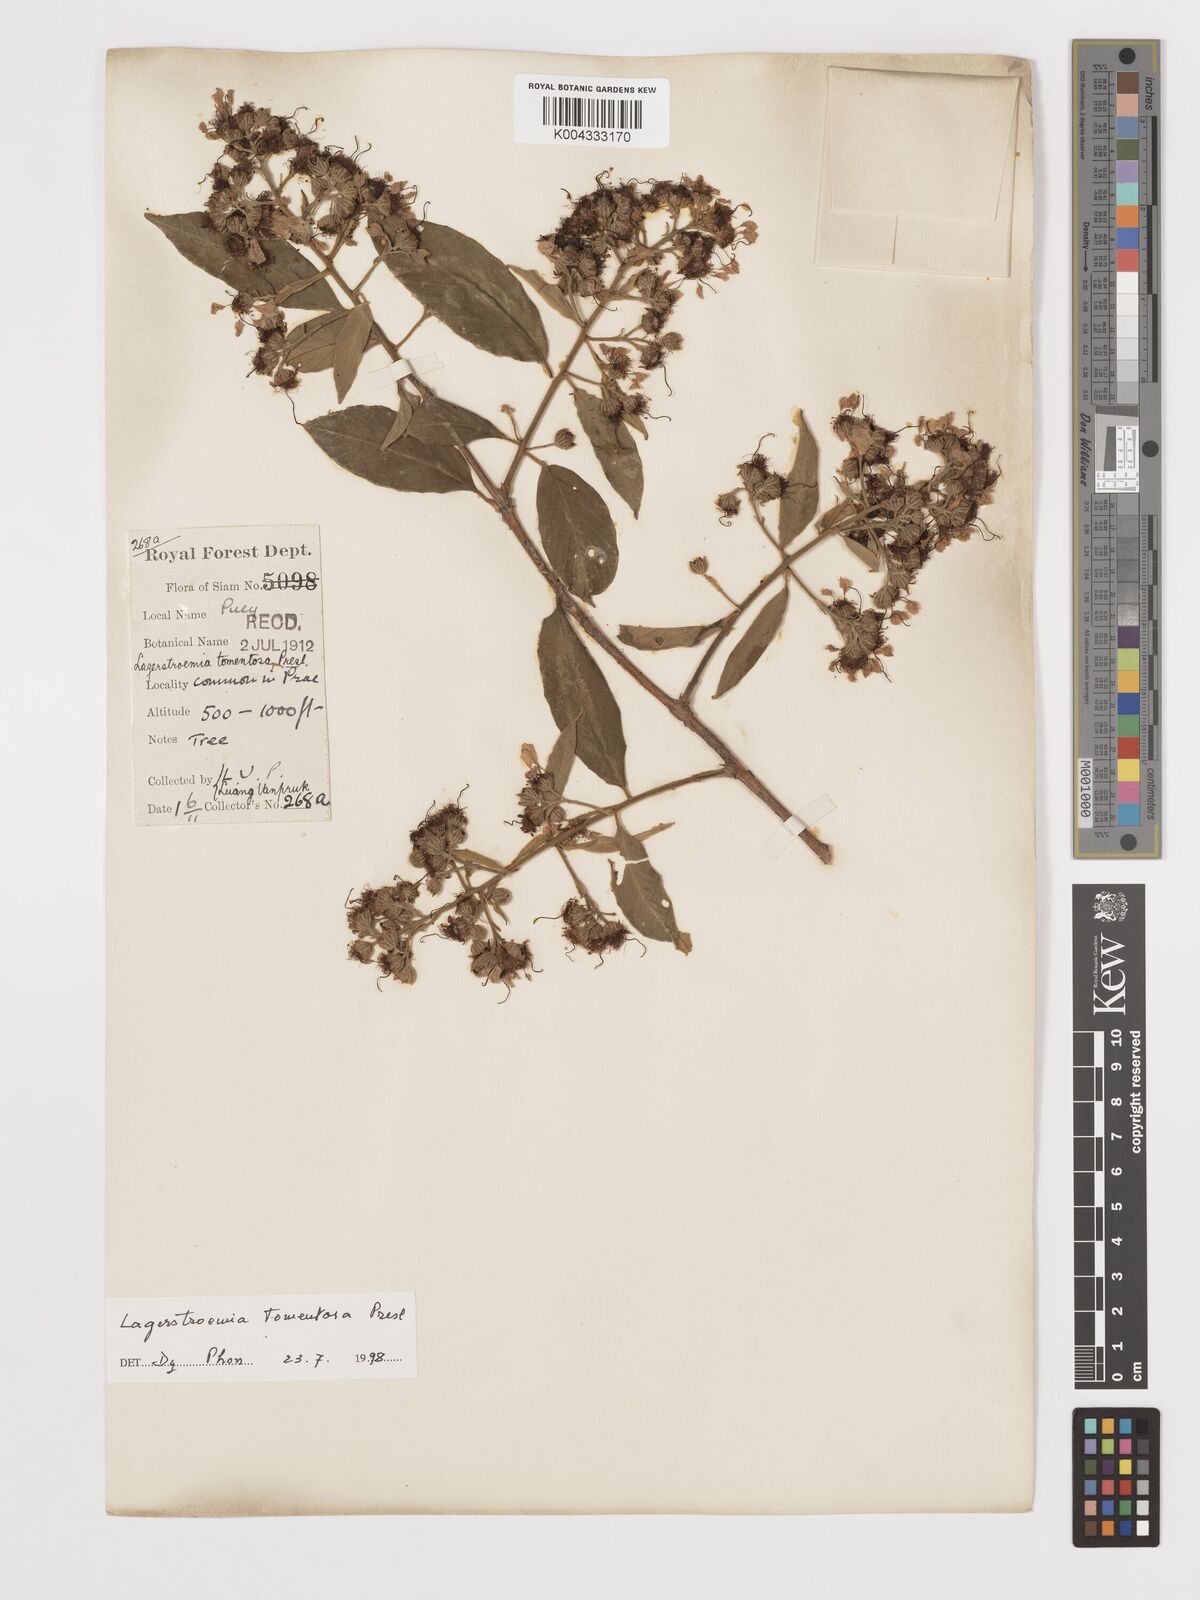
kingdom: Plantae
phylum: Tracheophyta
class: Magnoliopsida
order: Myrtales
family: Lythraceae
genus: Lagerstroemia
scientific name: Lagerstroemia tomentosa
